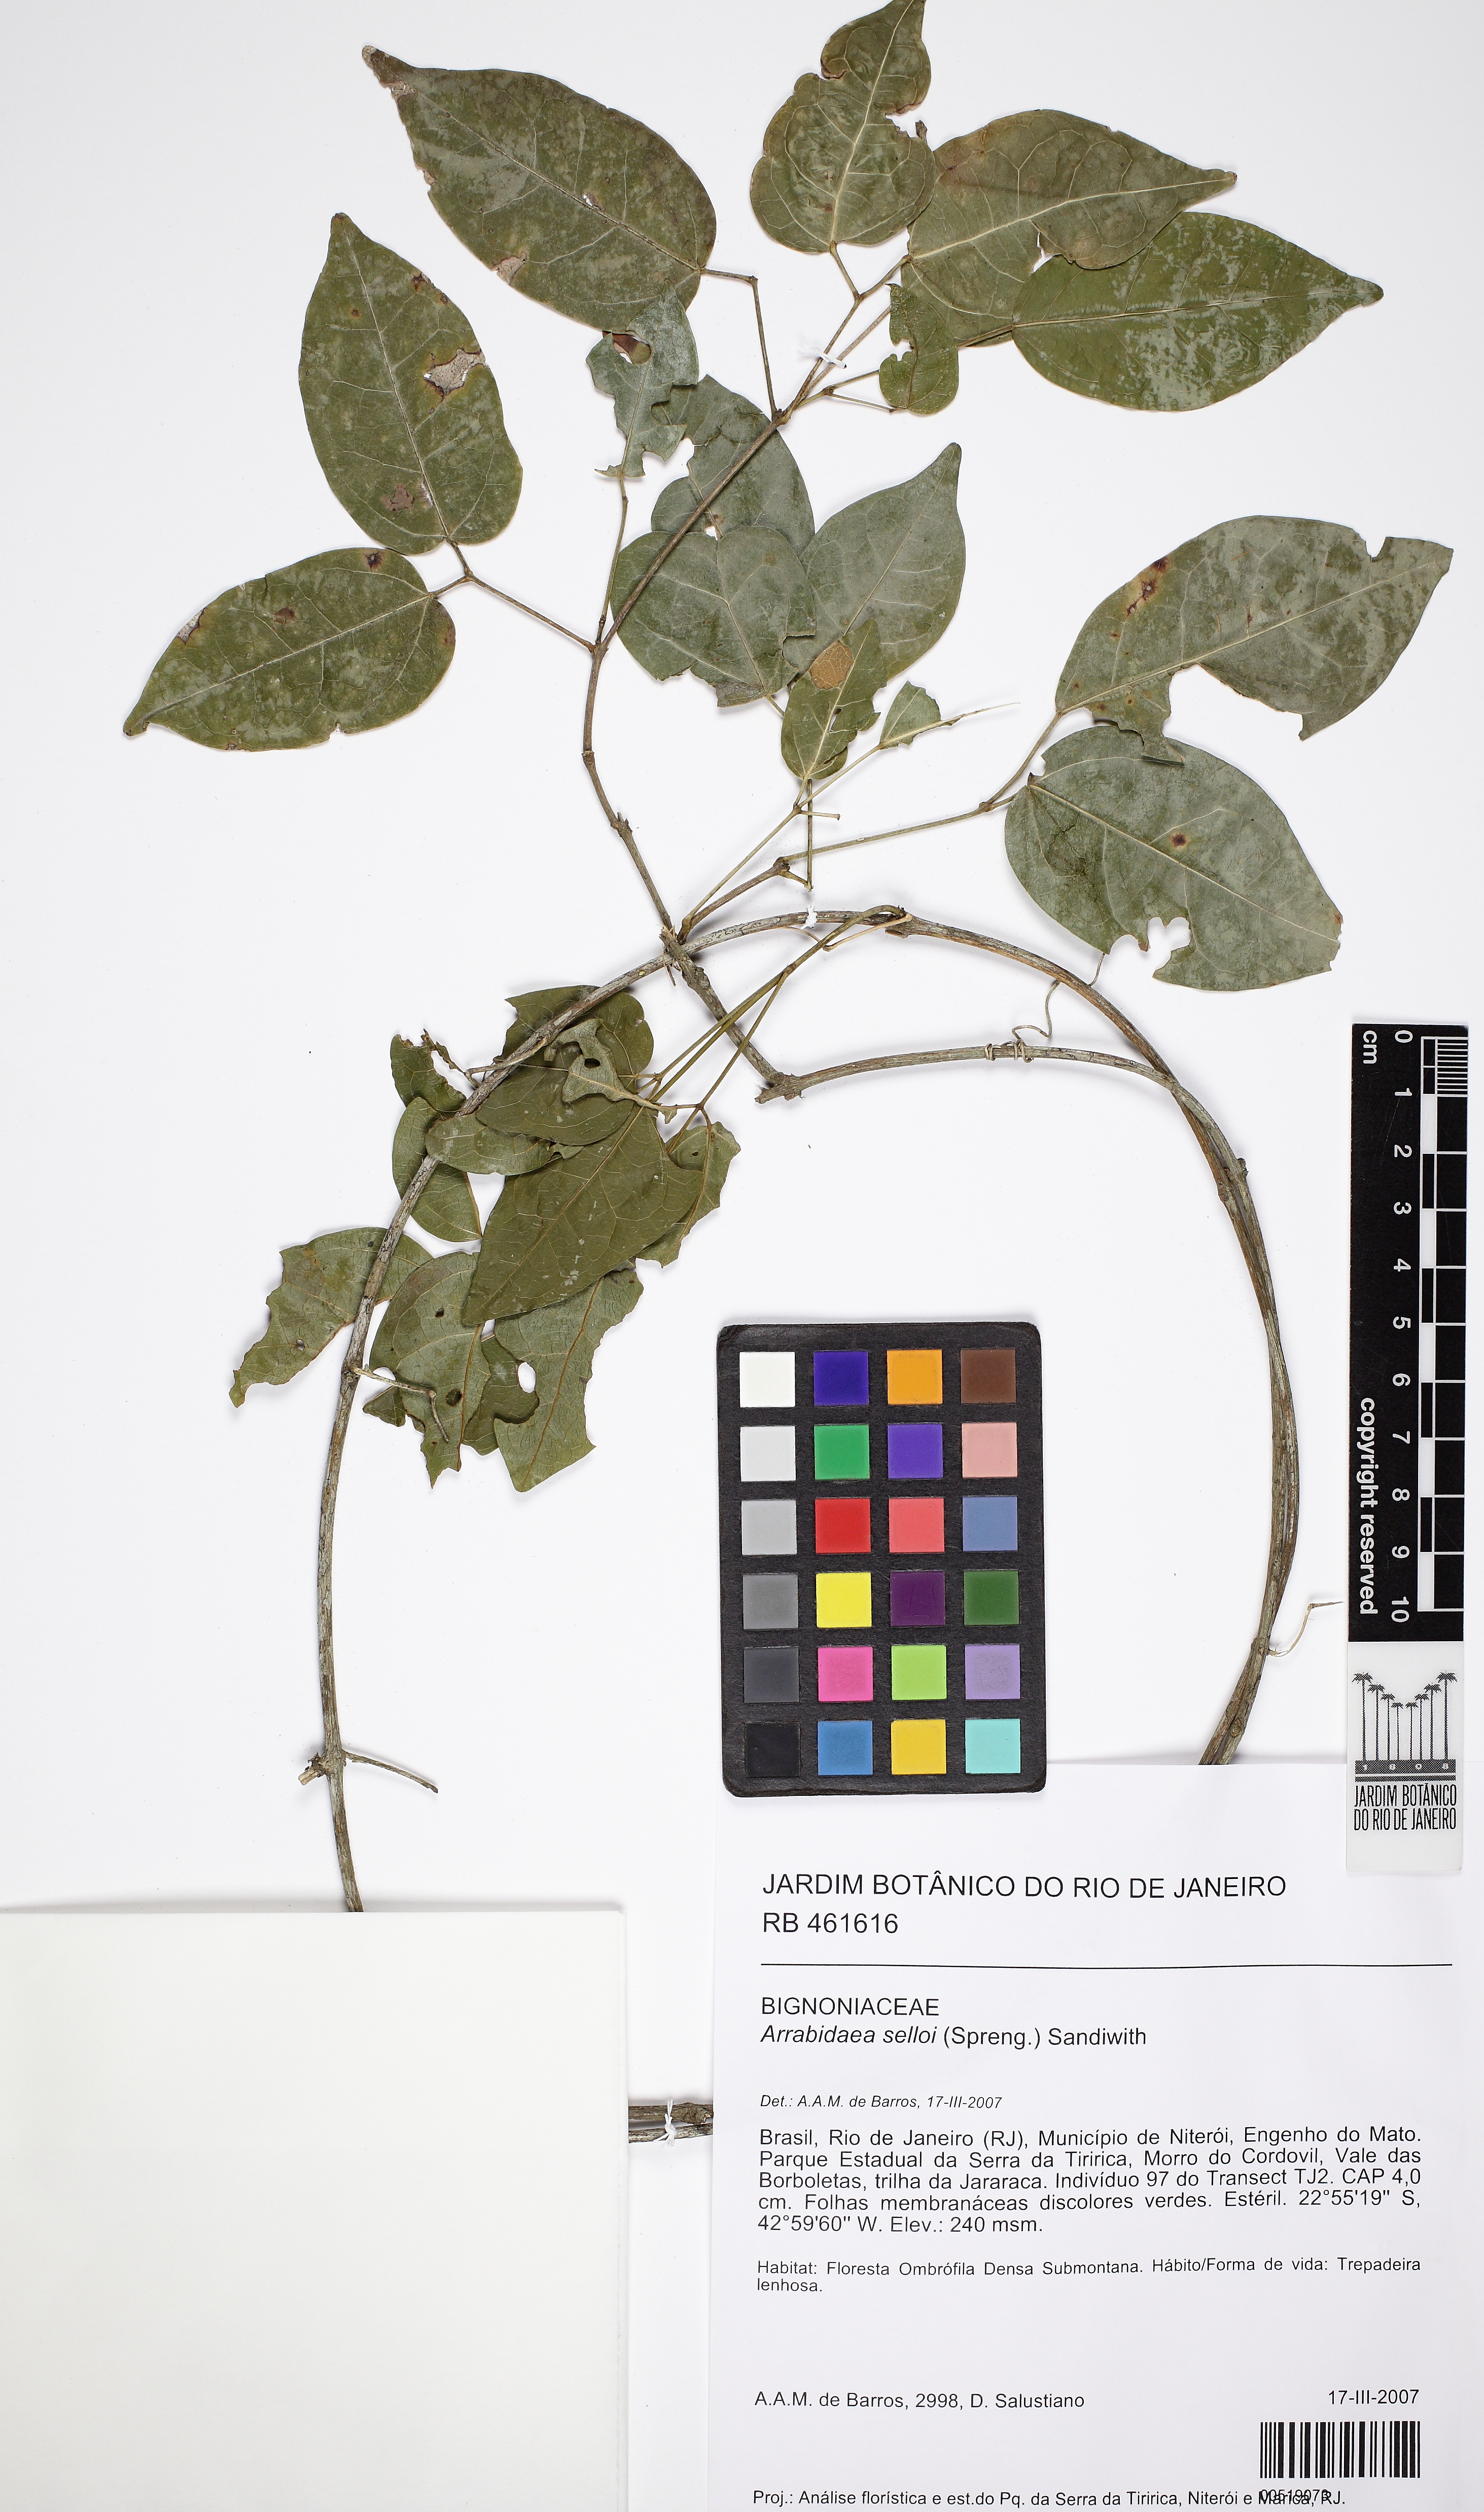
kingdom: Plantae
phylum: Tracheophyta
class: Magnoliopsida
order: Lamiales
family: Bignoniaceae
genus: Mansoa
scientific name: Mansoa
